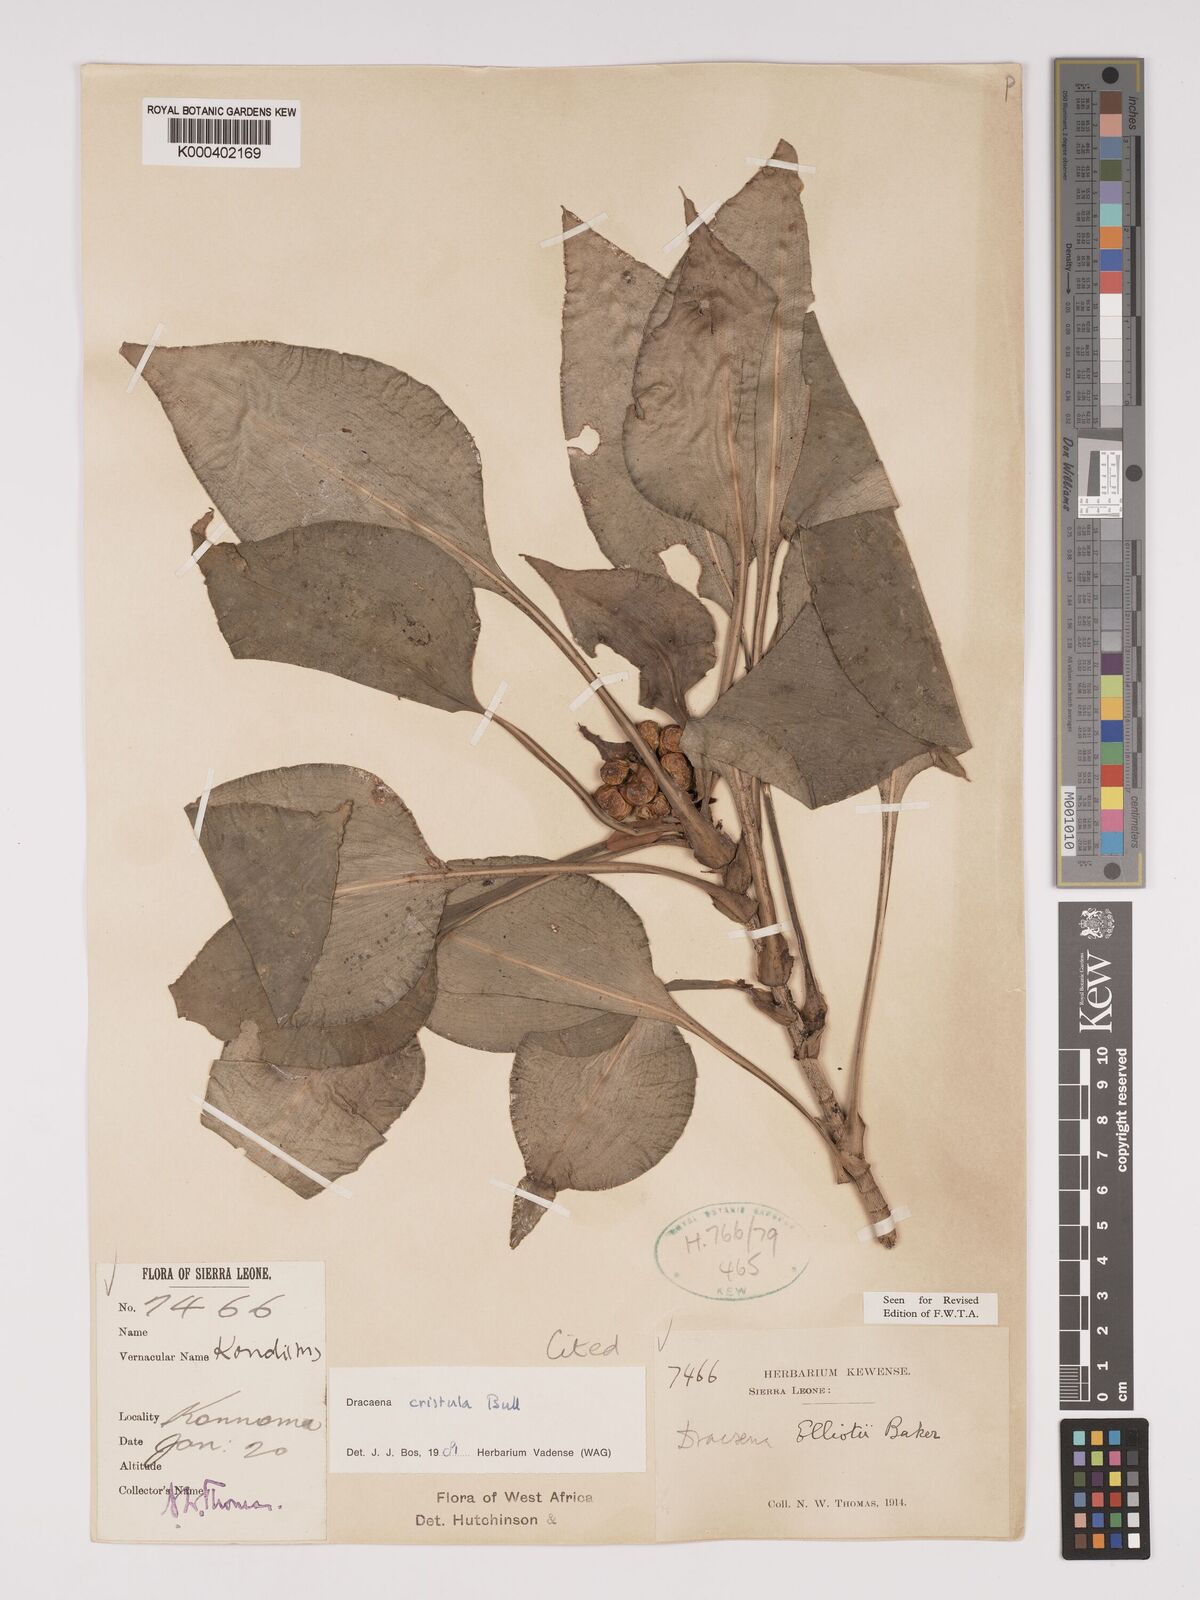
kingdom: Plantae
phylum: Tracheophyta
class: Liliopsida
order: Asparagales
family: Asparagaceae
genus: Dracaena
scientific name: Dracaena cristula
